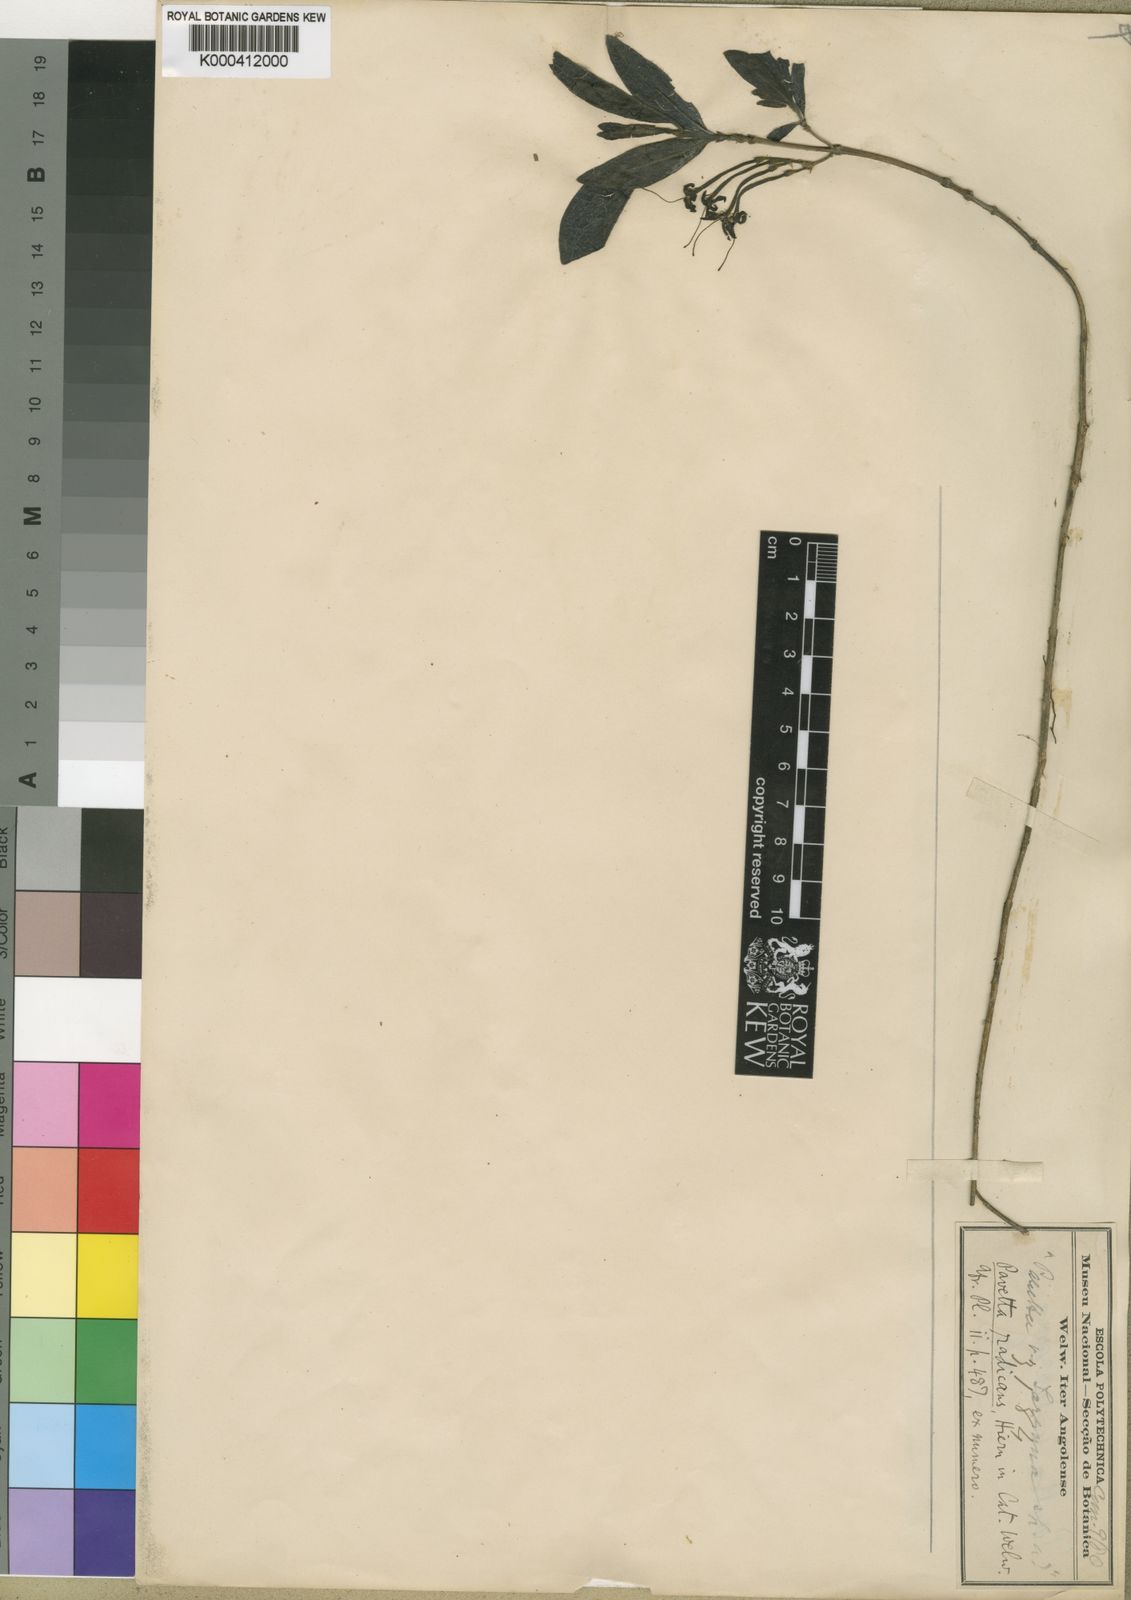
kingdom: Plantae
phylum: Tracheophyta
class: Magnoliopsida
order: Gentianales
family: Rubiaceae
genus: Pavetta
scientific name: Pavetta radicans
